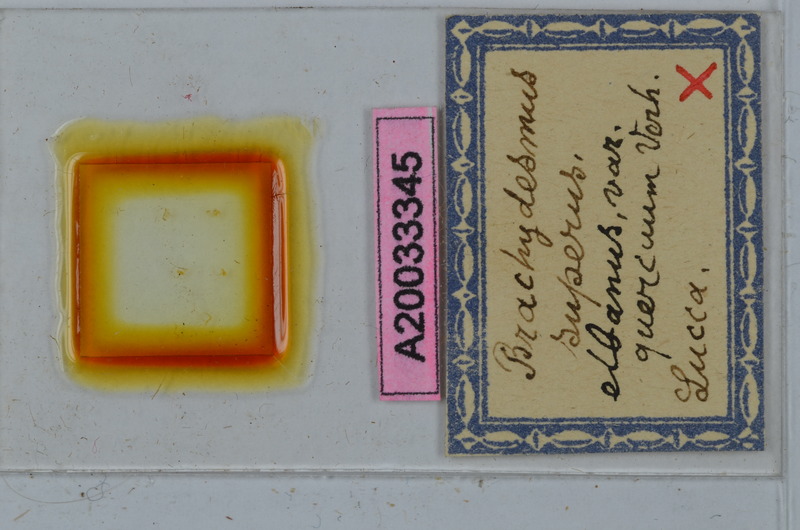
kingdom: Animalia
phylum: Arthropoda
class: Diplopoda
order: Polydesmida
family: Polydesmidae
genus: Brachydesmus
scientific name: Brachydesmus superus
